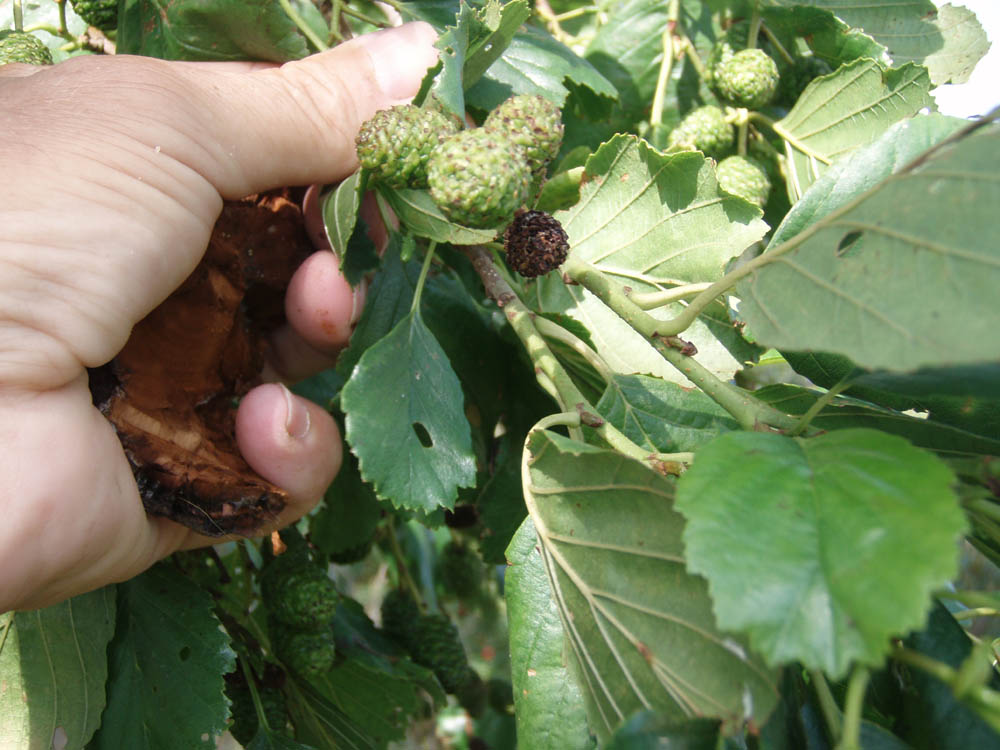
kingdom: Fungi
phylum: Basidiomycota
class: Agaricomycetes
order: Hymenochaetales
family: Hymenochaetaceae
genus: Xanthoporia
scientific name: Xanthoporia radiata
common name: elle-spejlporesvamp
